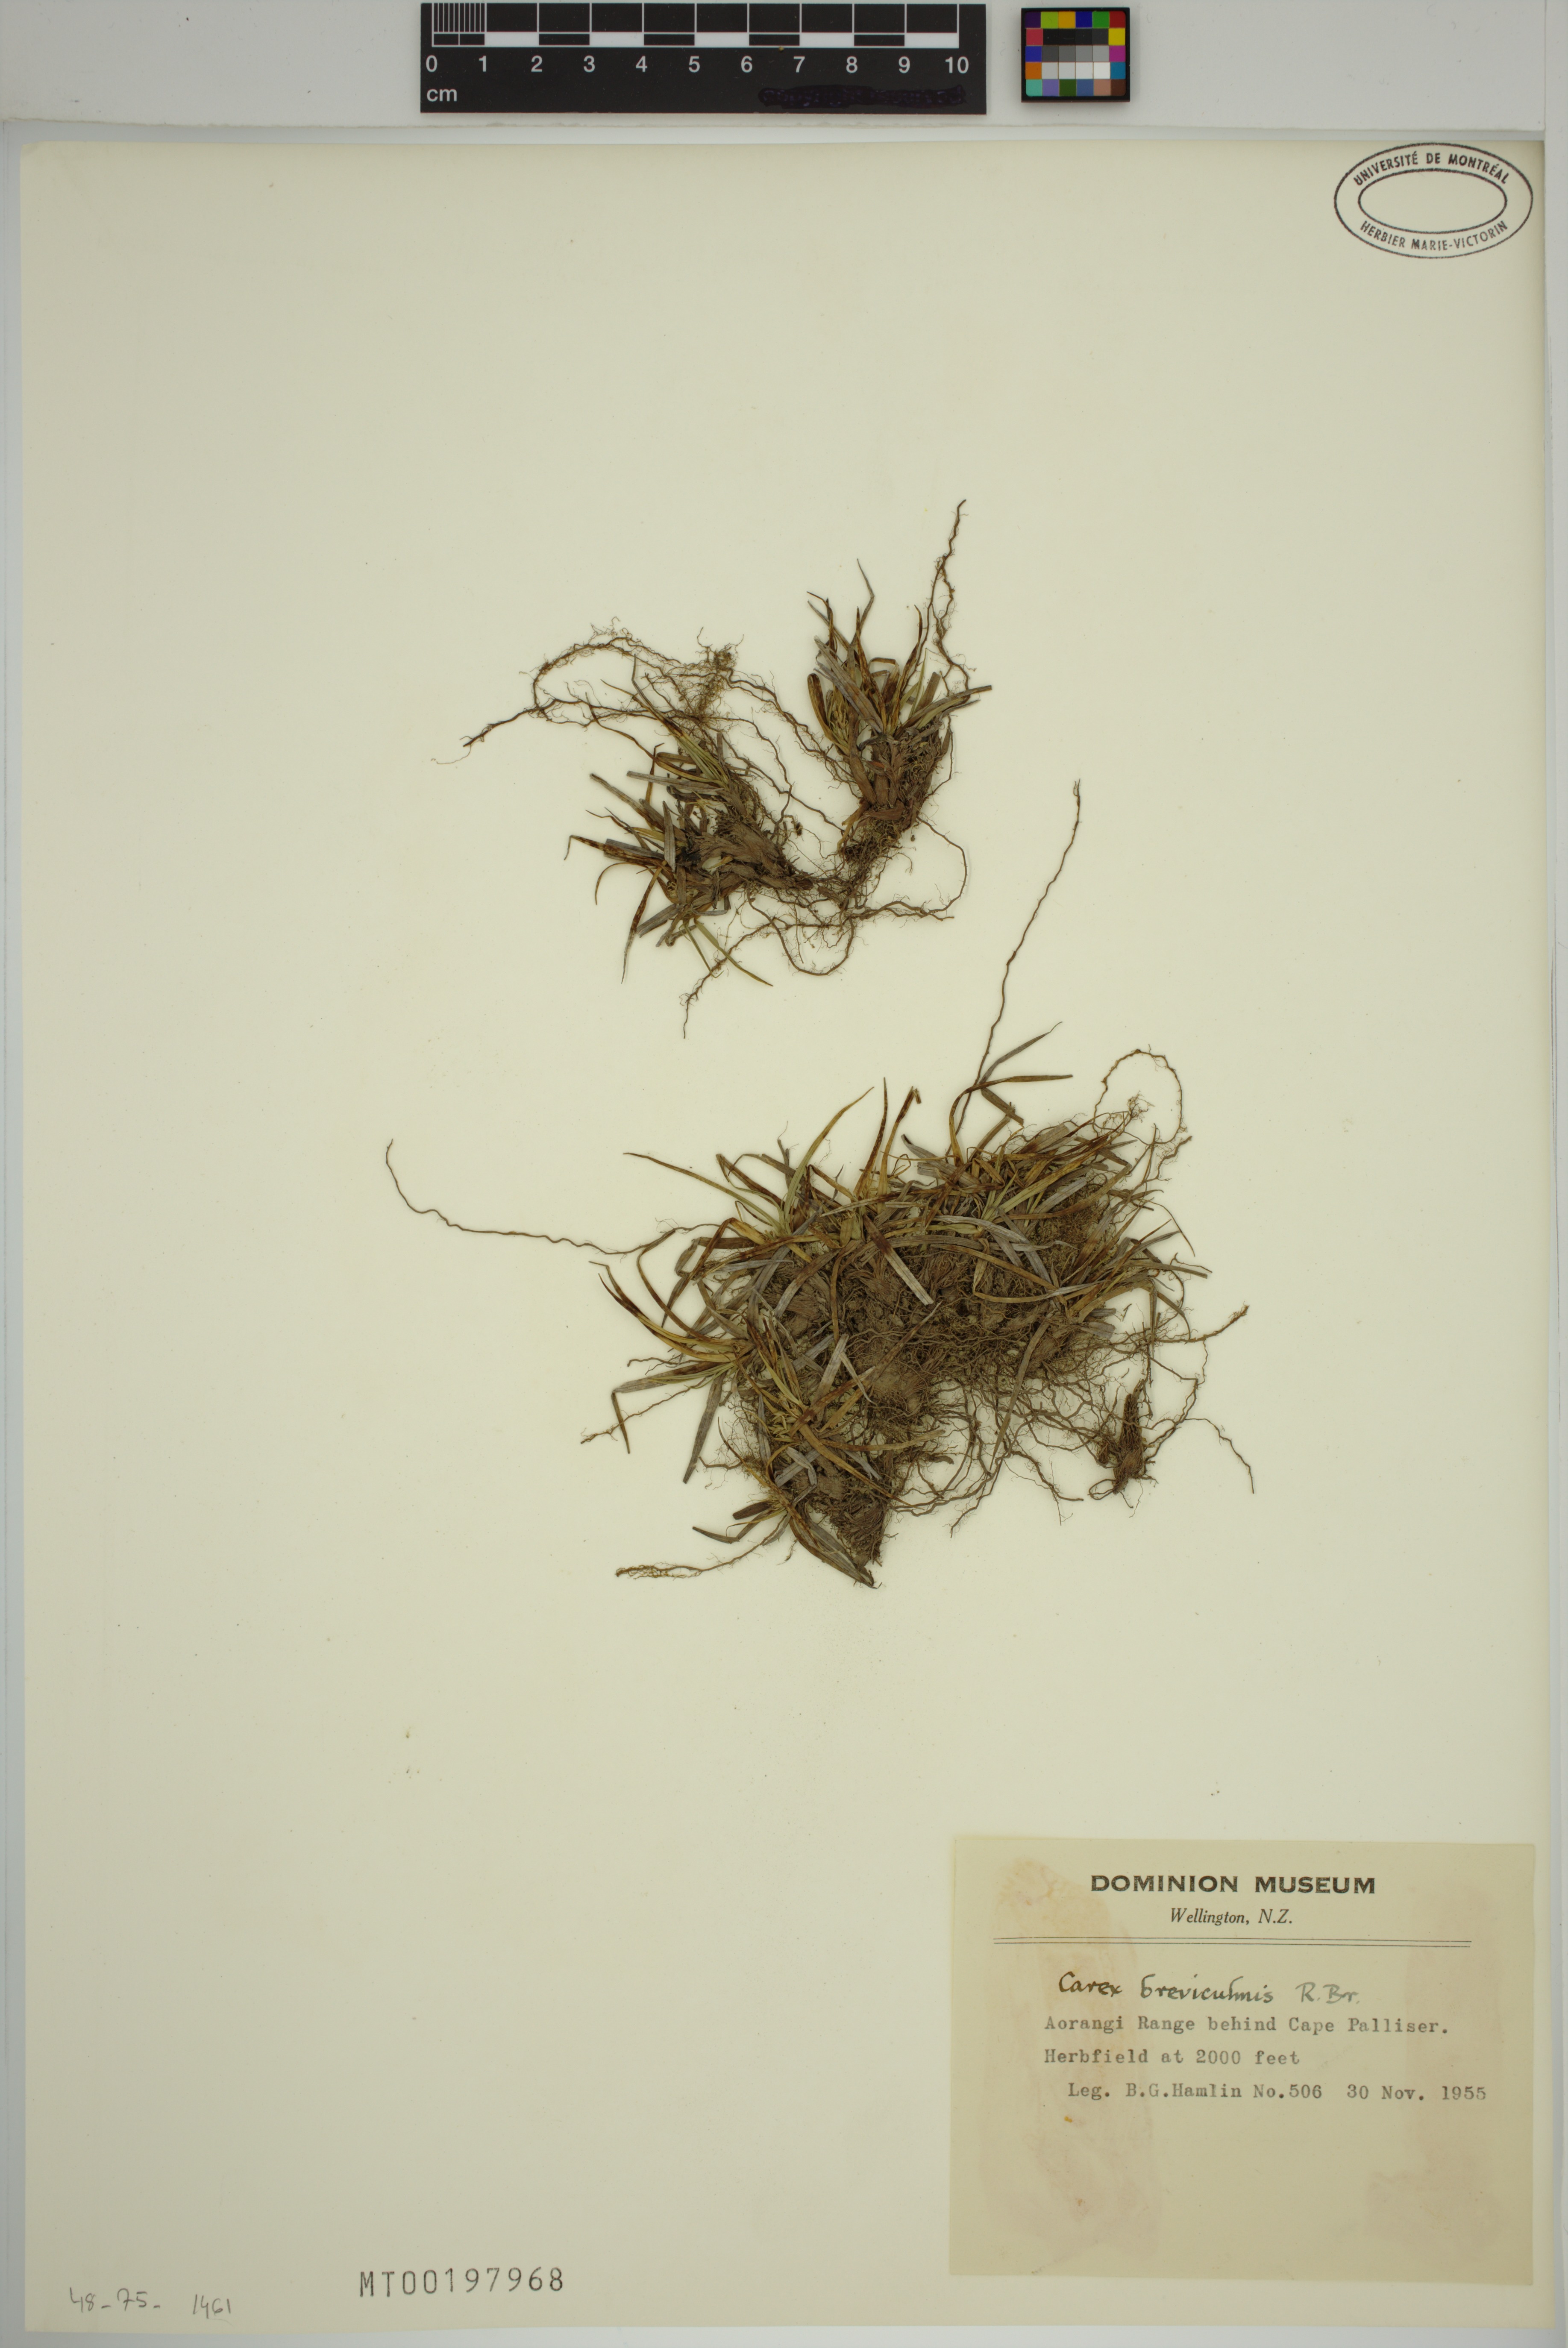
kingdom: Plantae
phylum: Tracheophyta
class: Liliopsida
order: Poales
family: Cyperaceae
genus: Carex
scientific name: Carex breviculmis
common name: Asian shortstem sedge
